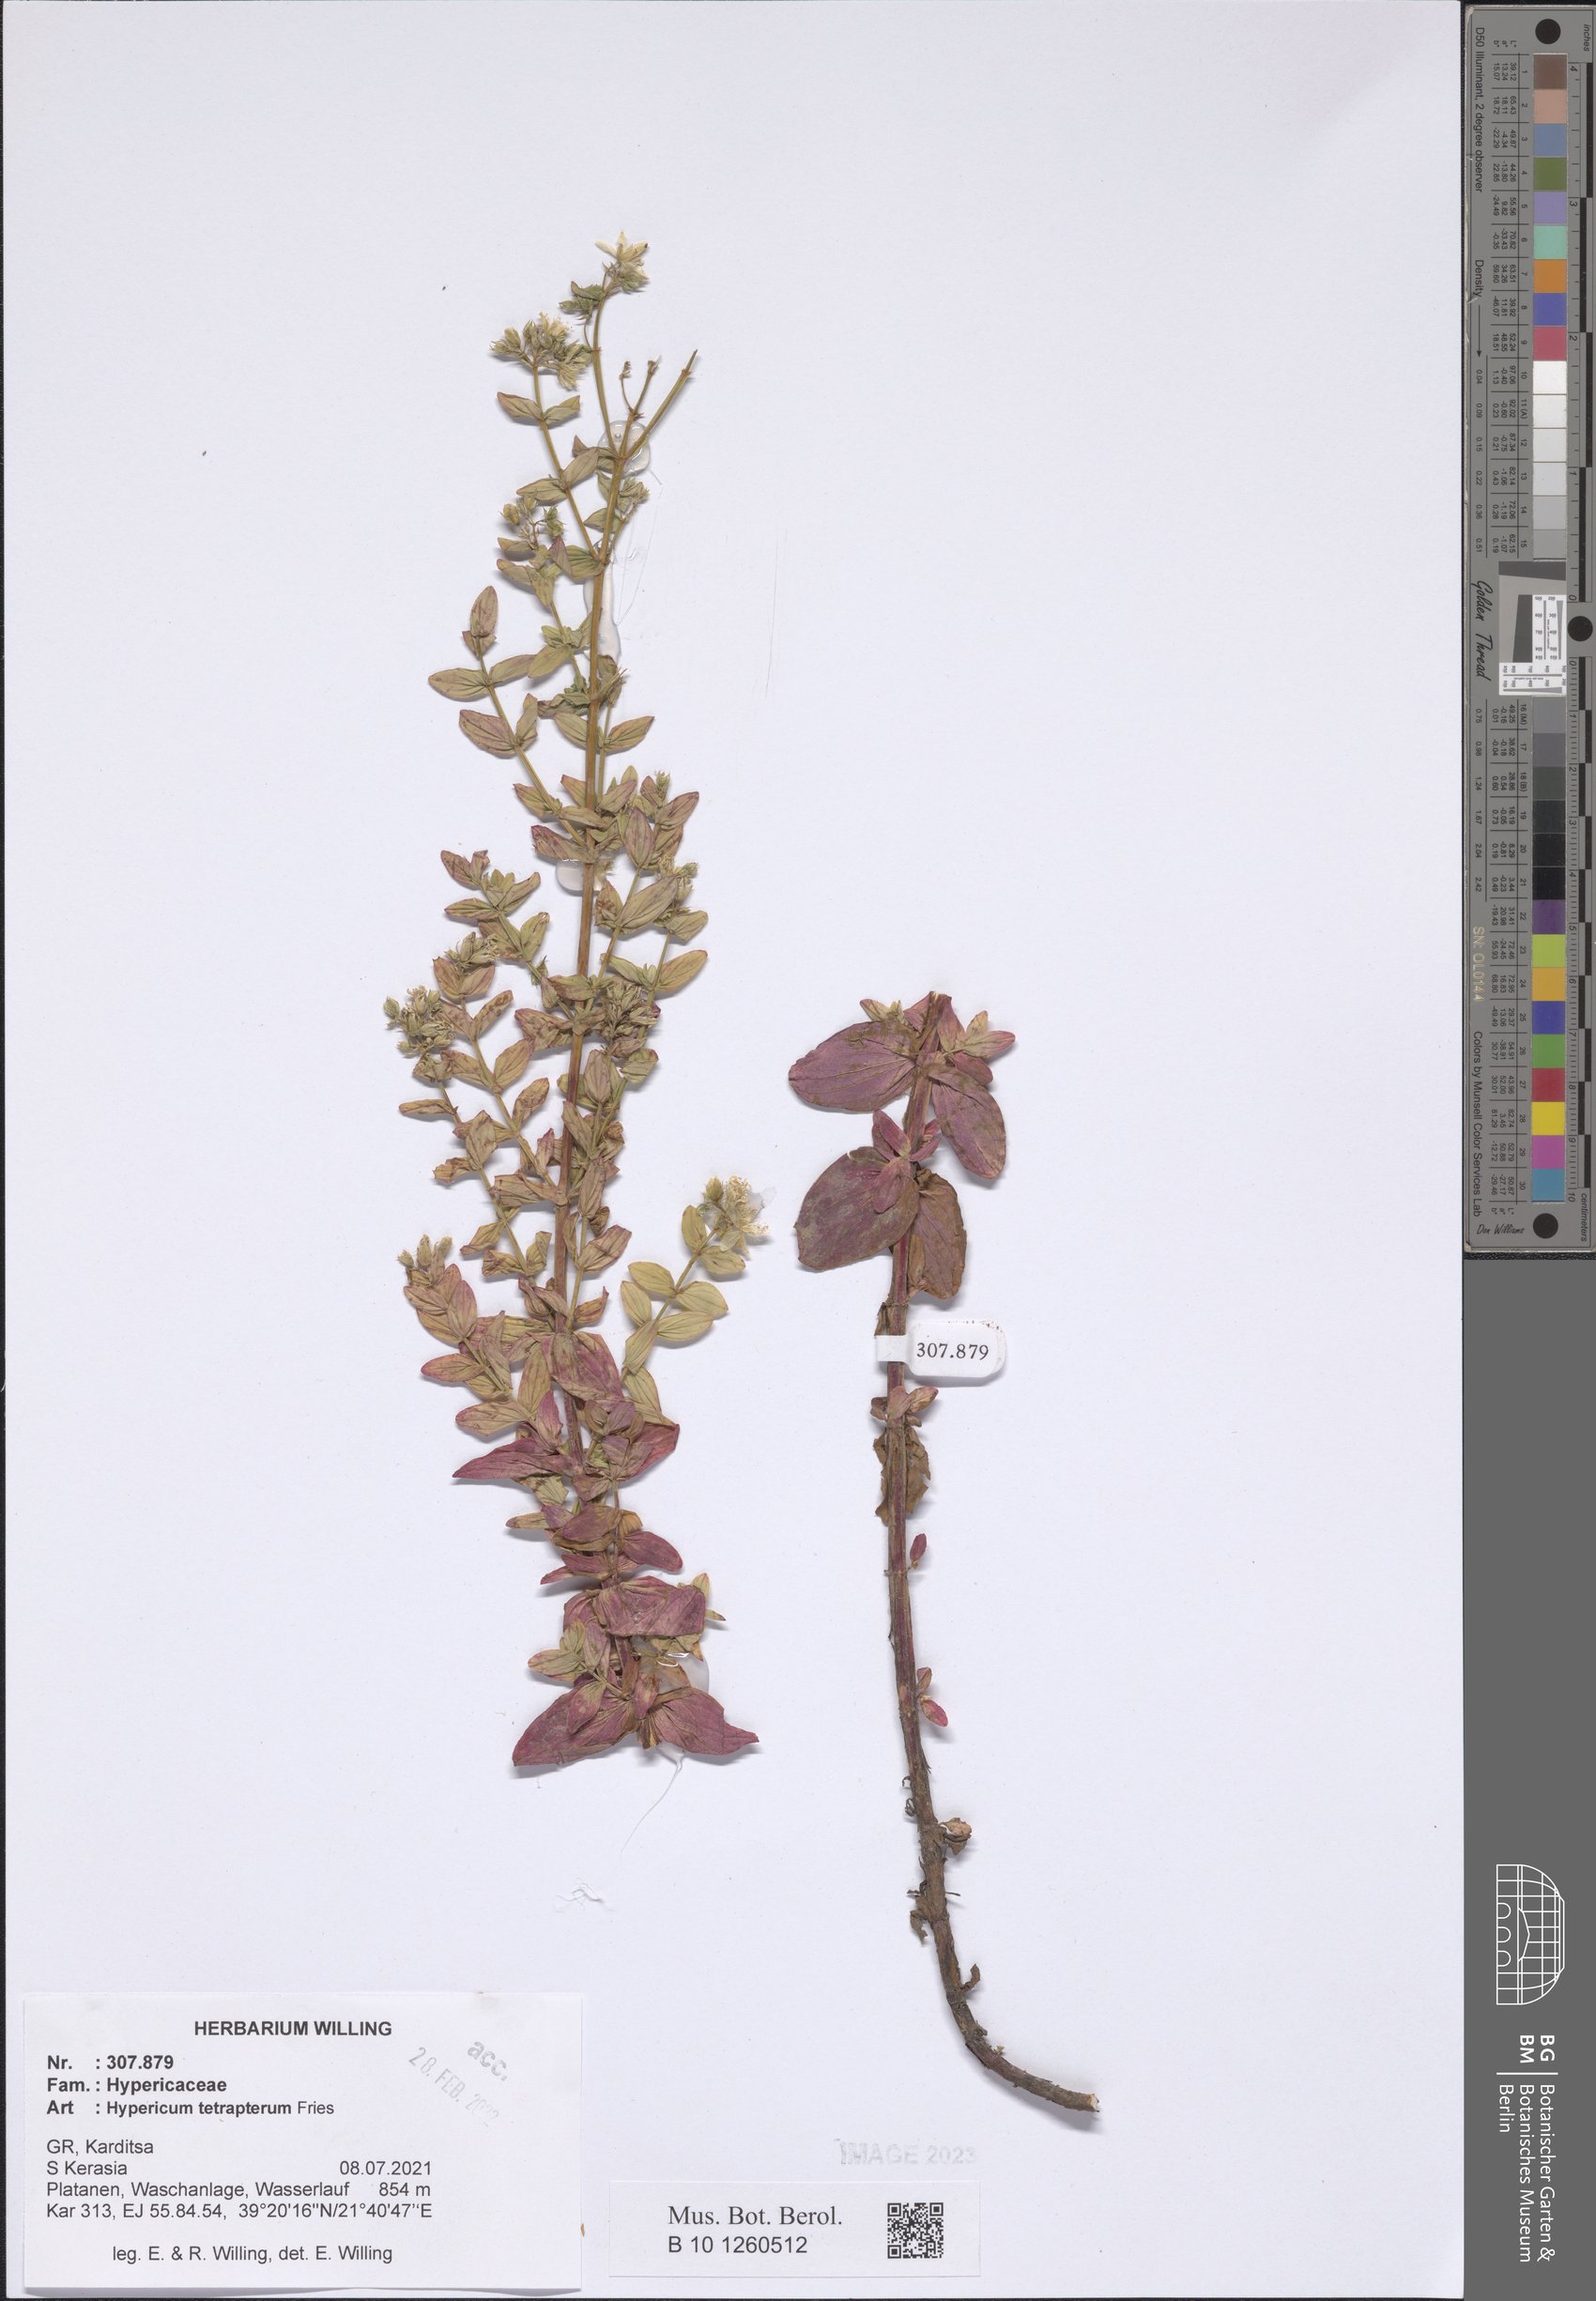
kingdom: Plantae
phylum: Tracheophyta
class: Magnoliopsida
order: Malpighiales
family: Hypericaceae
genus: Hypericum
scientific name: Hypericum tetrapterum
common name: Square-stalked st. john's-wort
